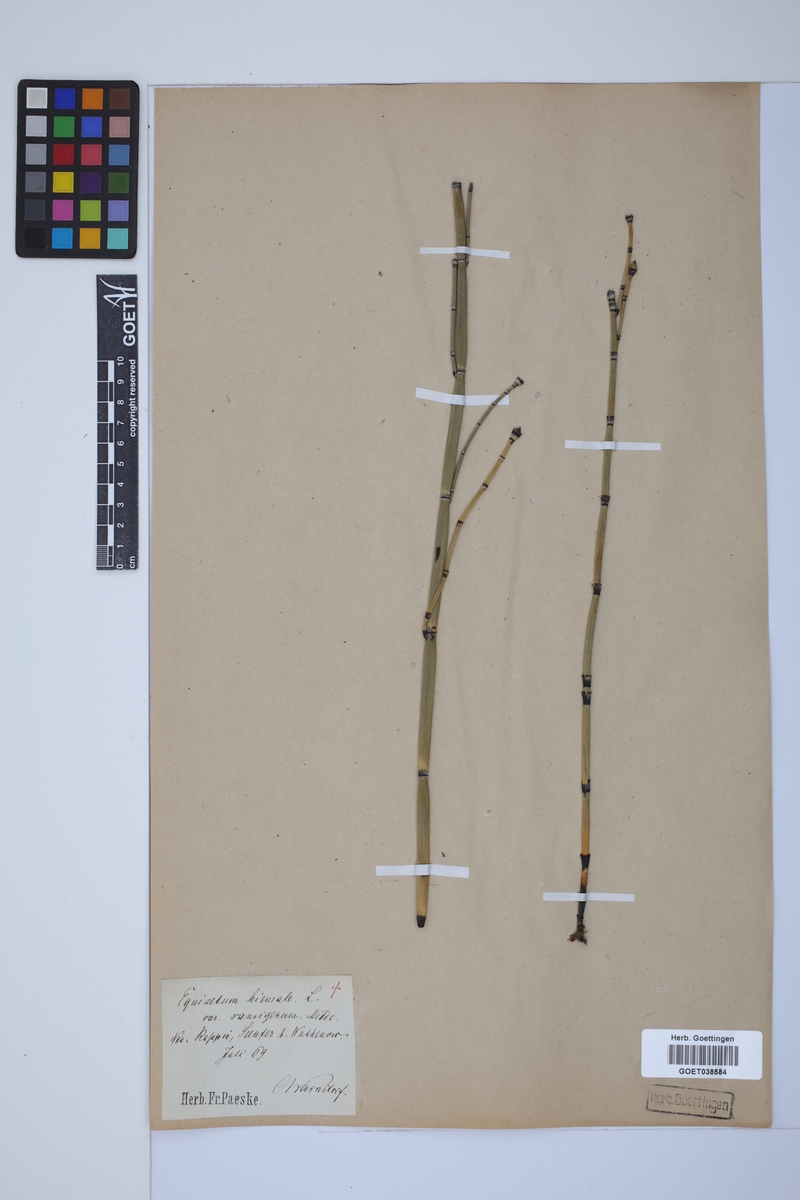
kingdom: Plantae
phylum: Tracheophyta
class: Polypodiopsida
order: Equisetales
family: Equisetaceae
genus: Equisetum
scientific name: Equisetum hyemale
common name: Rough horsetail
